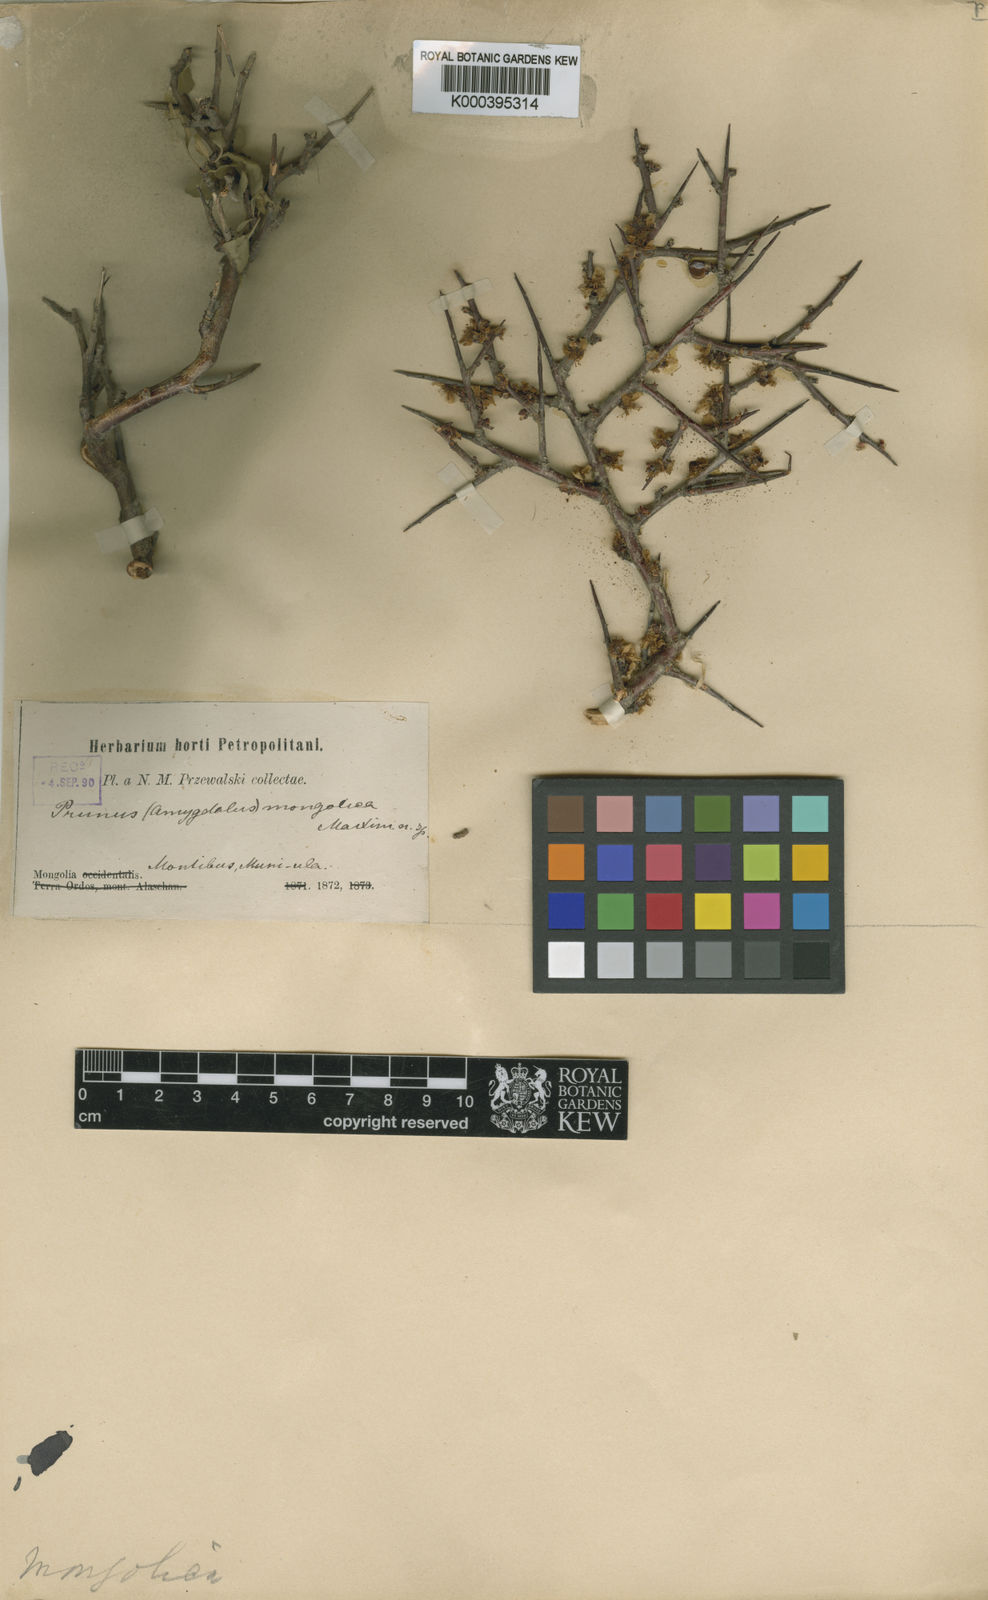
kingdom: Plantae
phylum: Tracheophyta
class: Magnoliopsida
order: Rosales
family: Rosaceae
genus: Prunus
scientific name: Prunus mongolica
